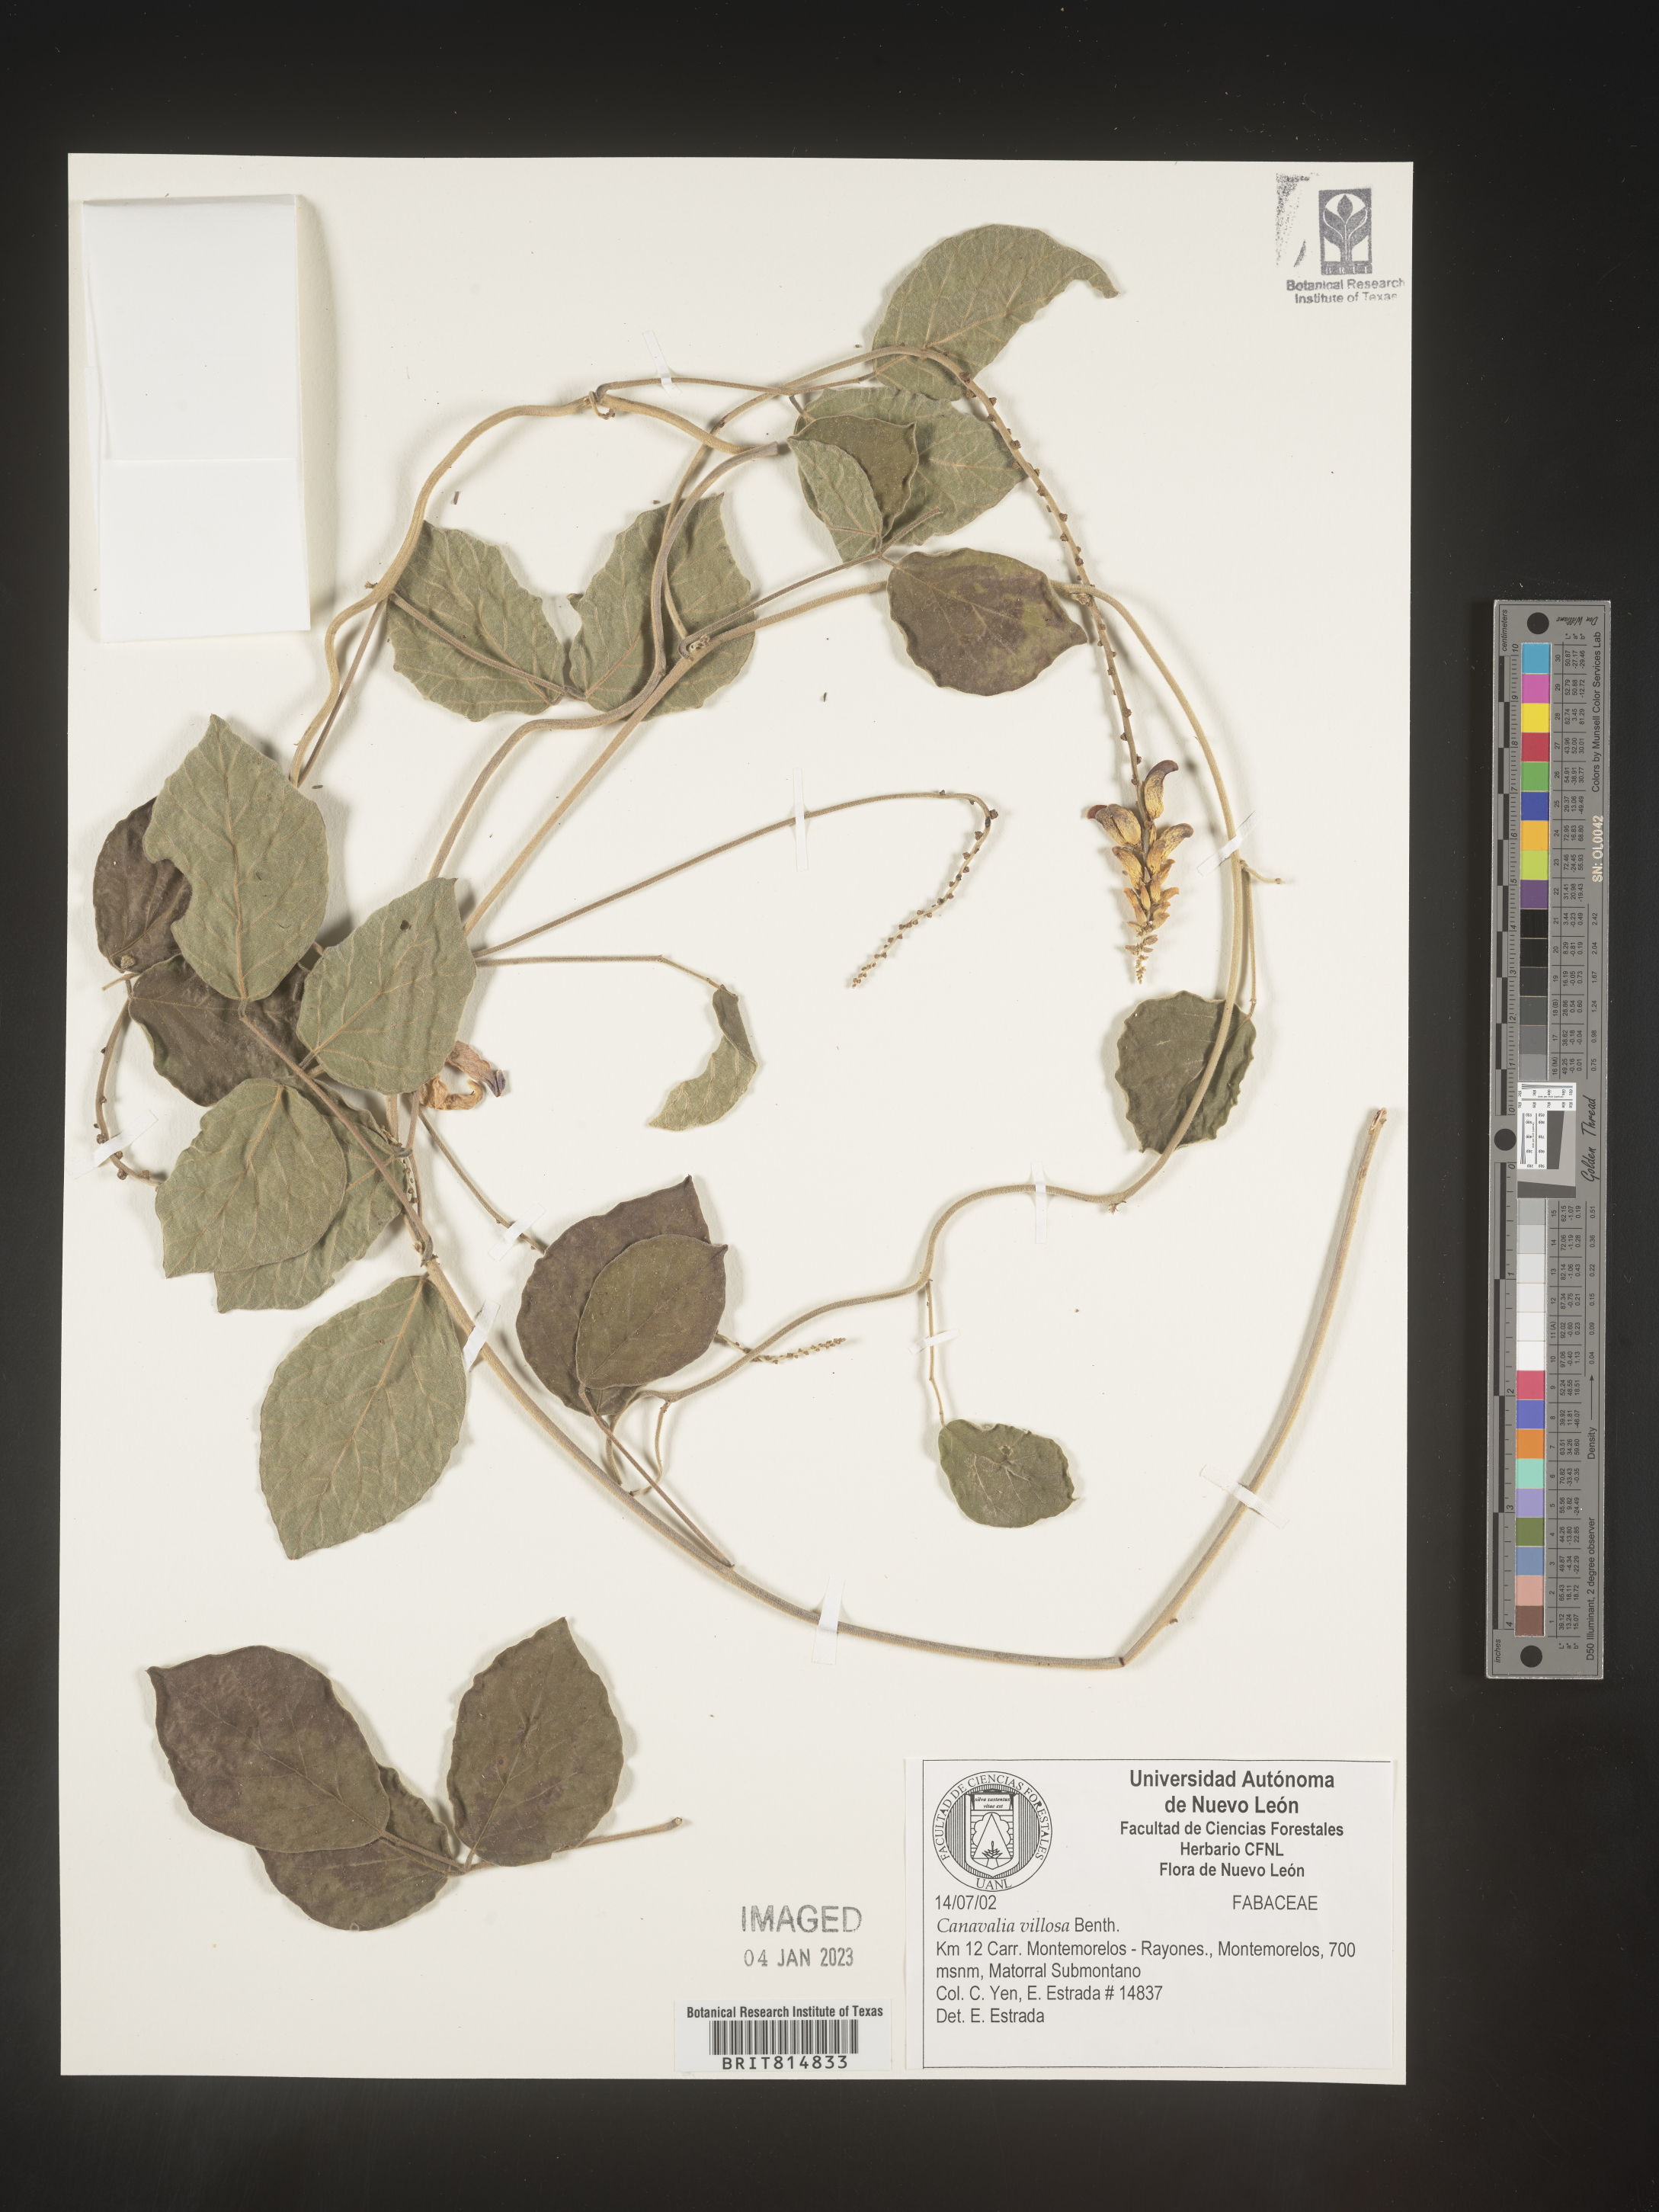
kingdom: Plantae
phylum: Tracheophyta
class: Magnoliopsida
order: Fabales
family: Fabaceae
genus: Canavalia
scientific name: Canavalia
